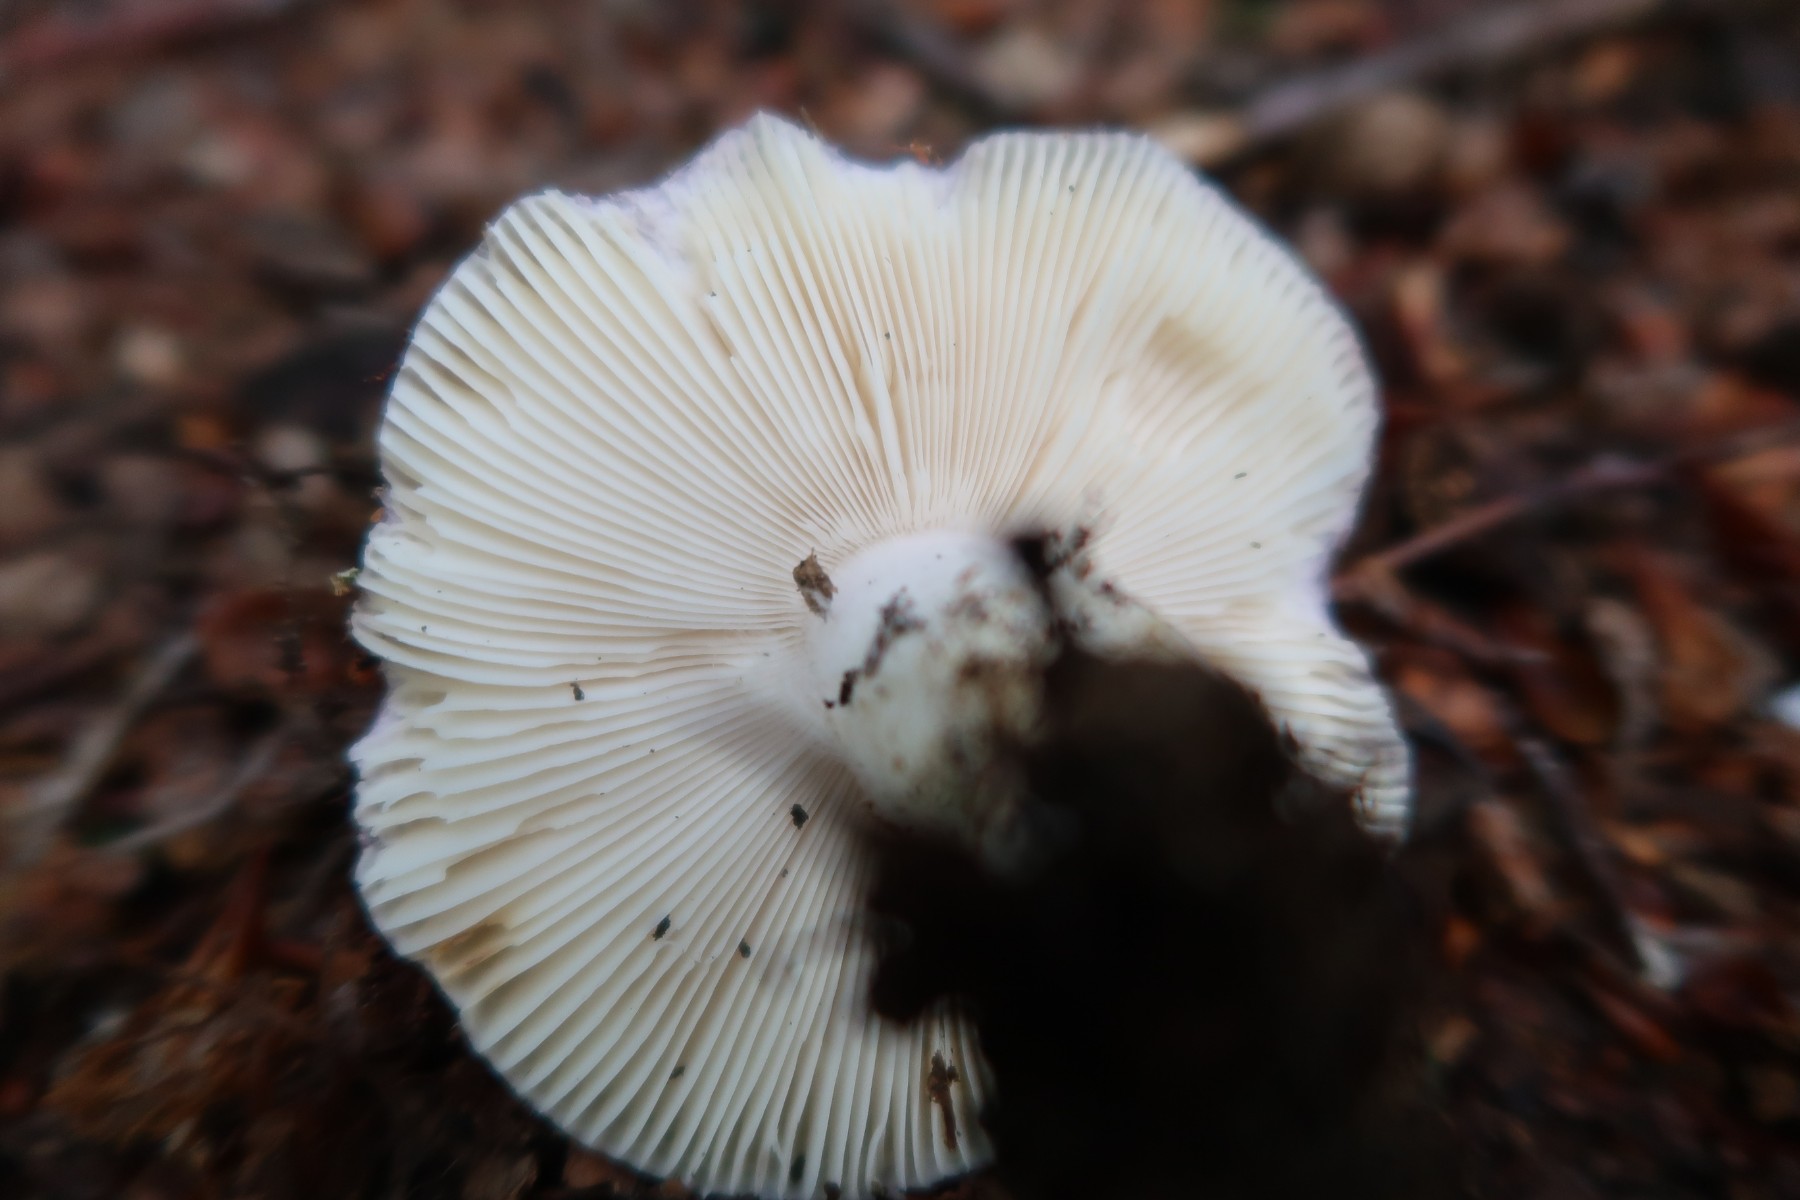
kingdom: Fungi
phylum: Basidiomycota
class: Agaricomycetes
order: Russulales
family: Russulaceae
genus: Russula
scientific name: Russula ionochlora
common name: violetgrøn skørhat
